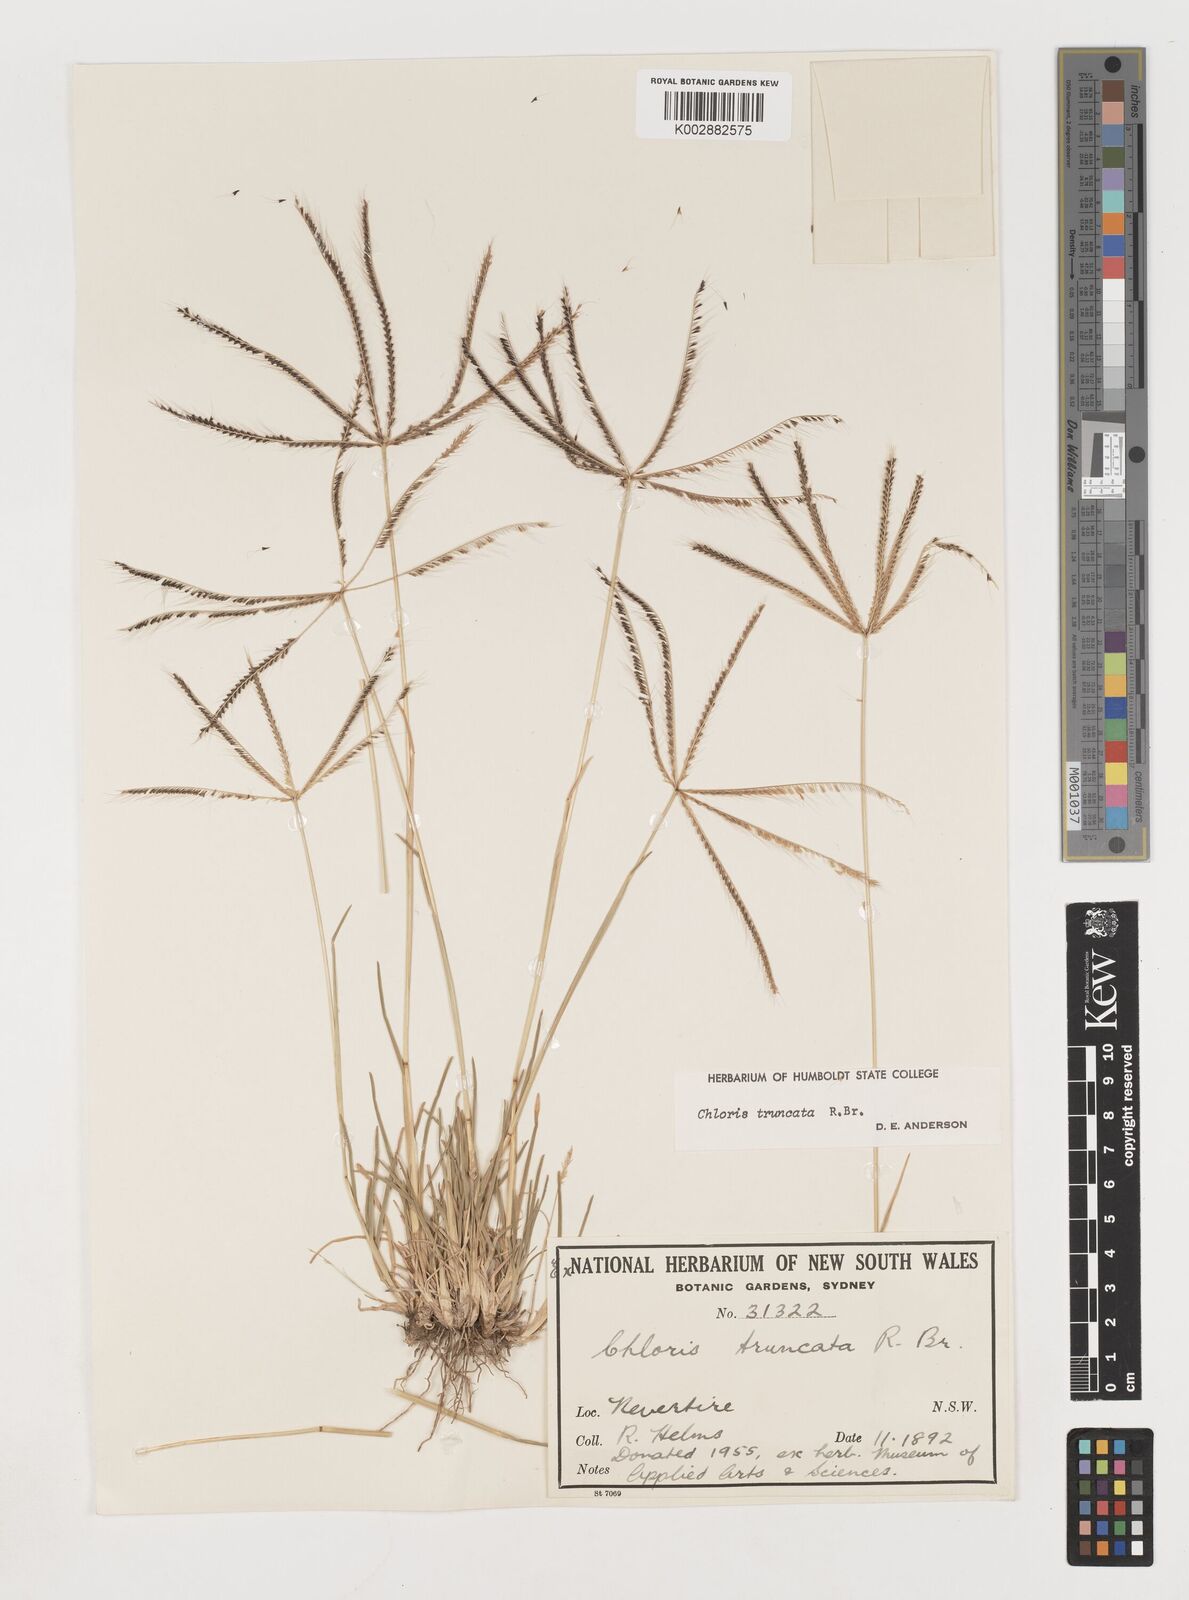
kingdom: Plantae
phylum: Tracheophyta
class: Liliopsida
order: Poales
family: Poaceae
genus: Chloris
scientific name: Chloris truncata
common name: Windmill-grass
